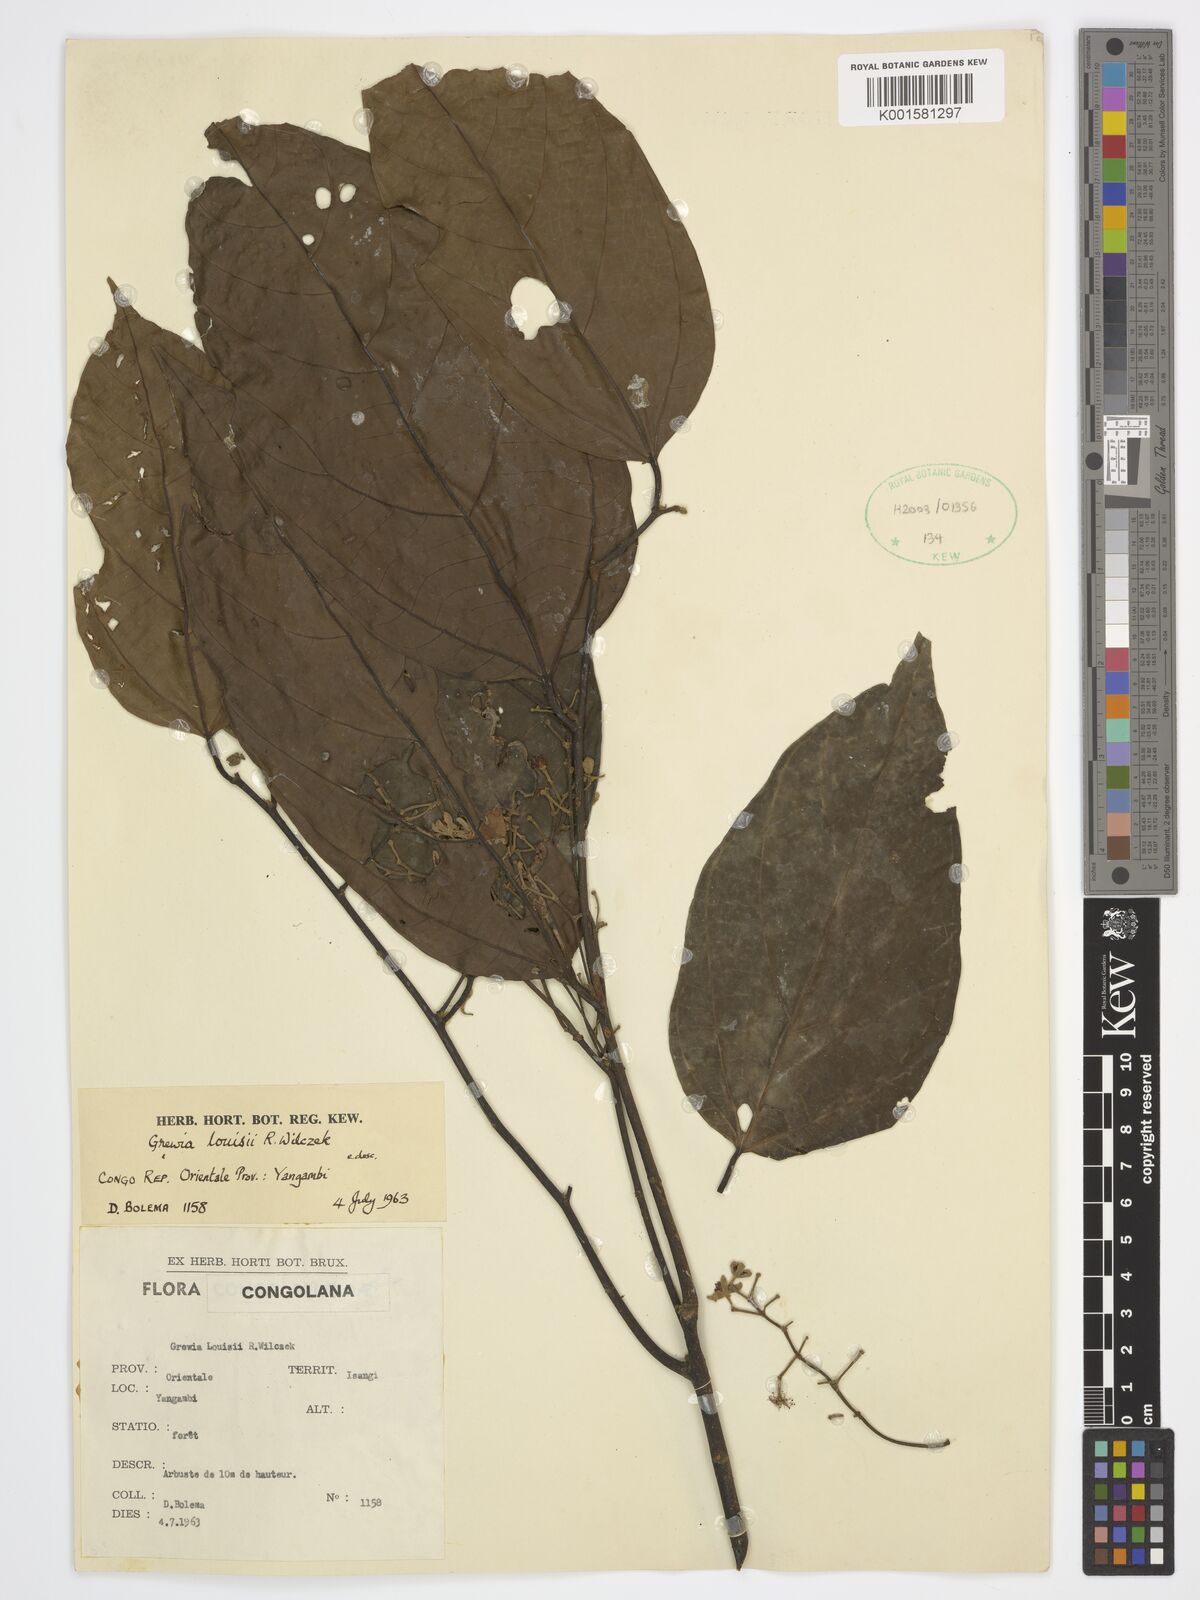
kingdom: Plantae
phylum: Tracheophyta
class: Magnoliopsida
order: Malvales
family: Malvaceae
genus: Grewia
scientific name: Grewia louisii
